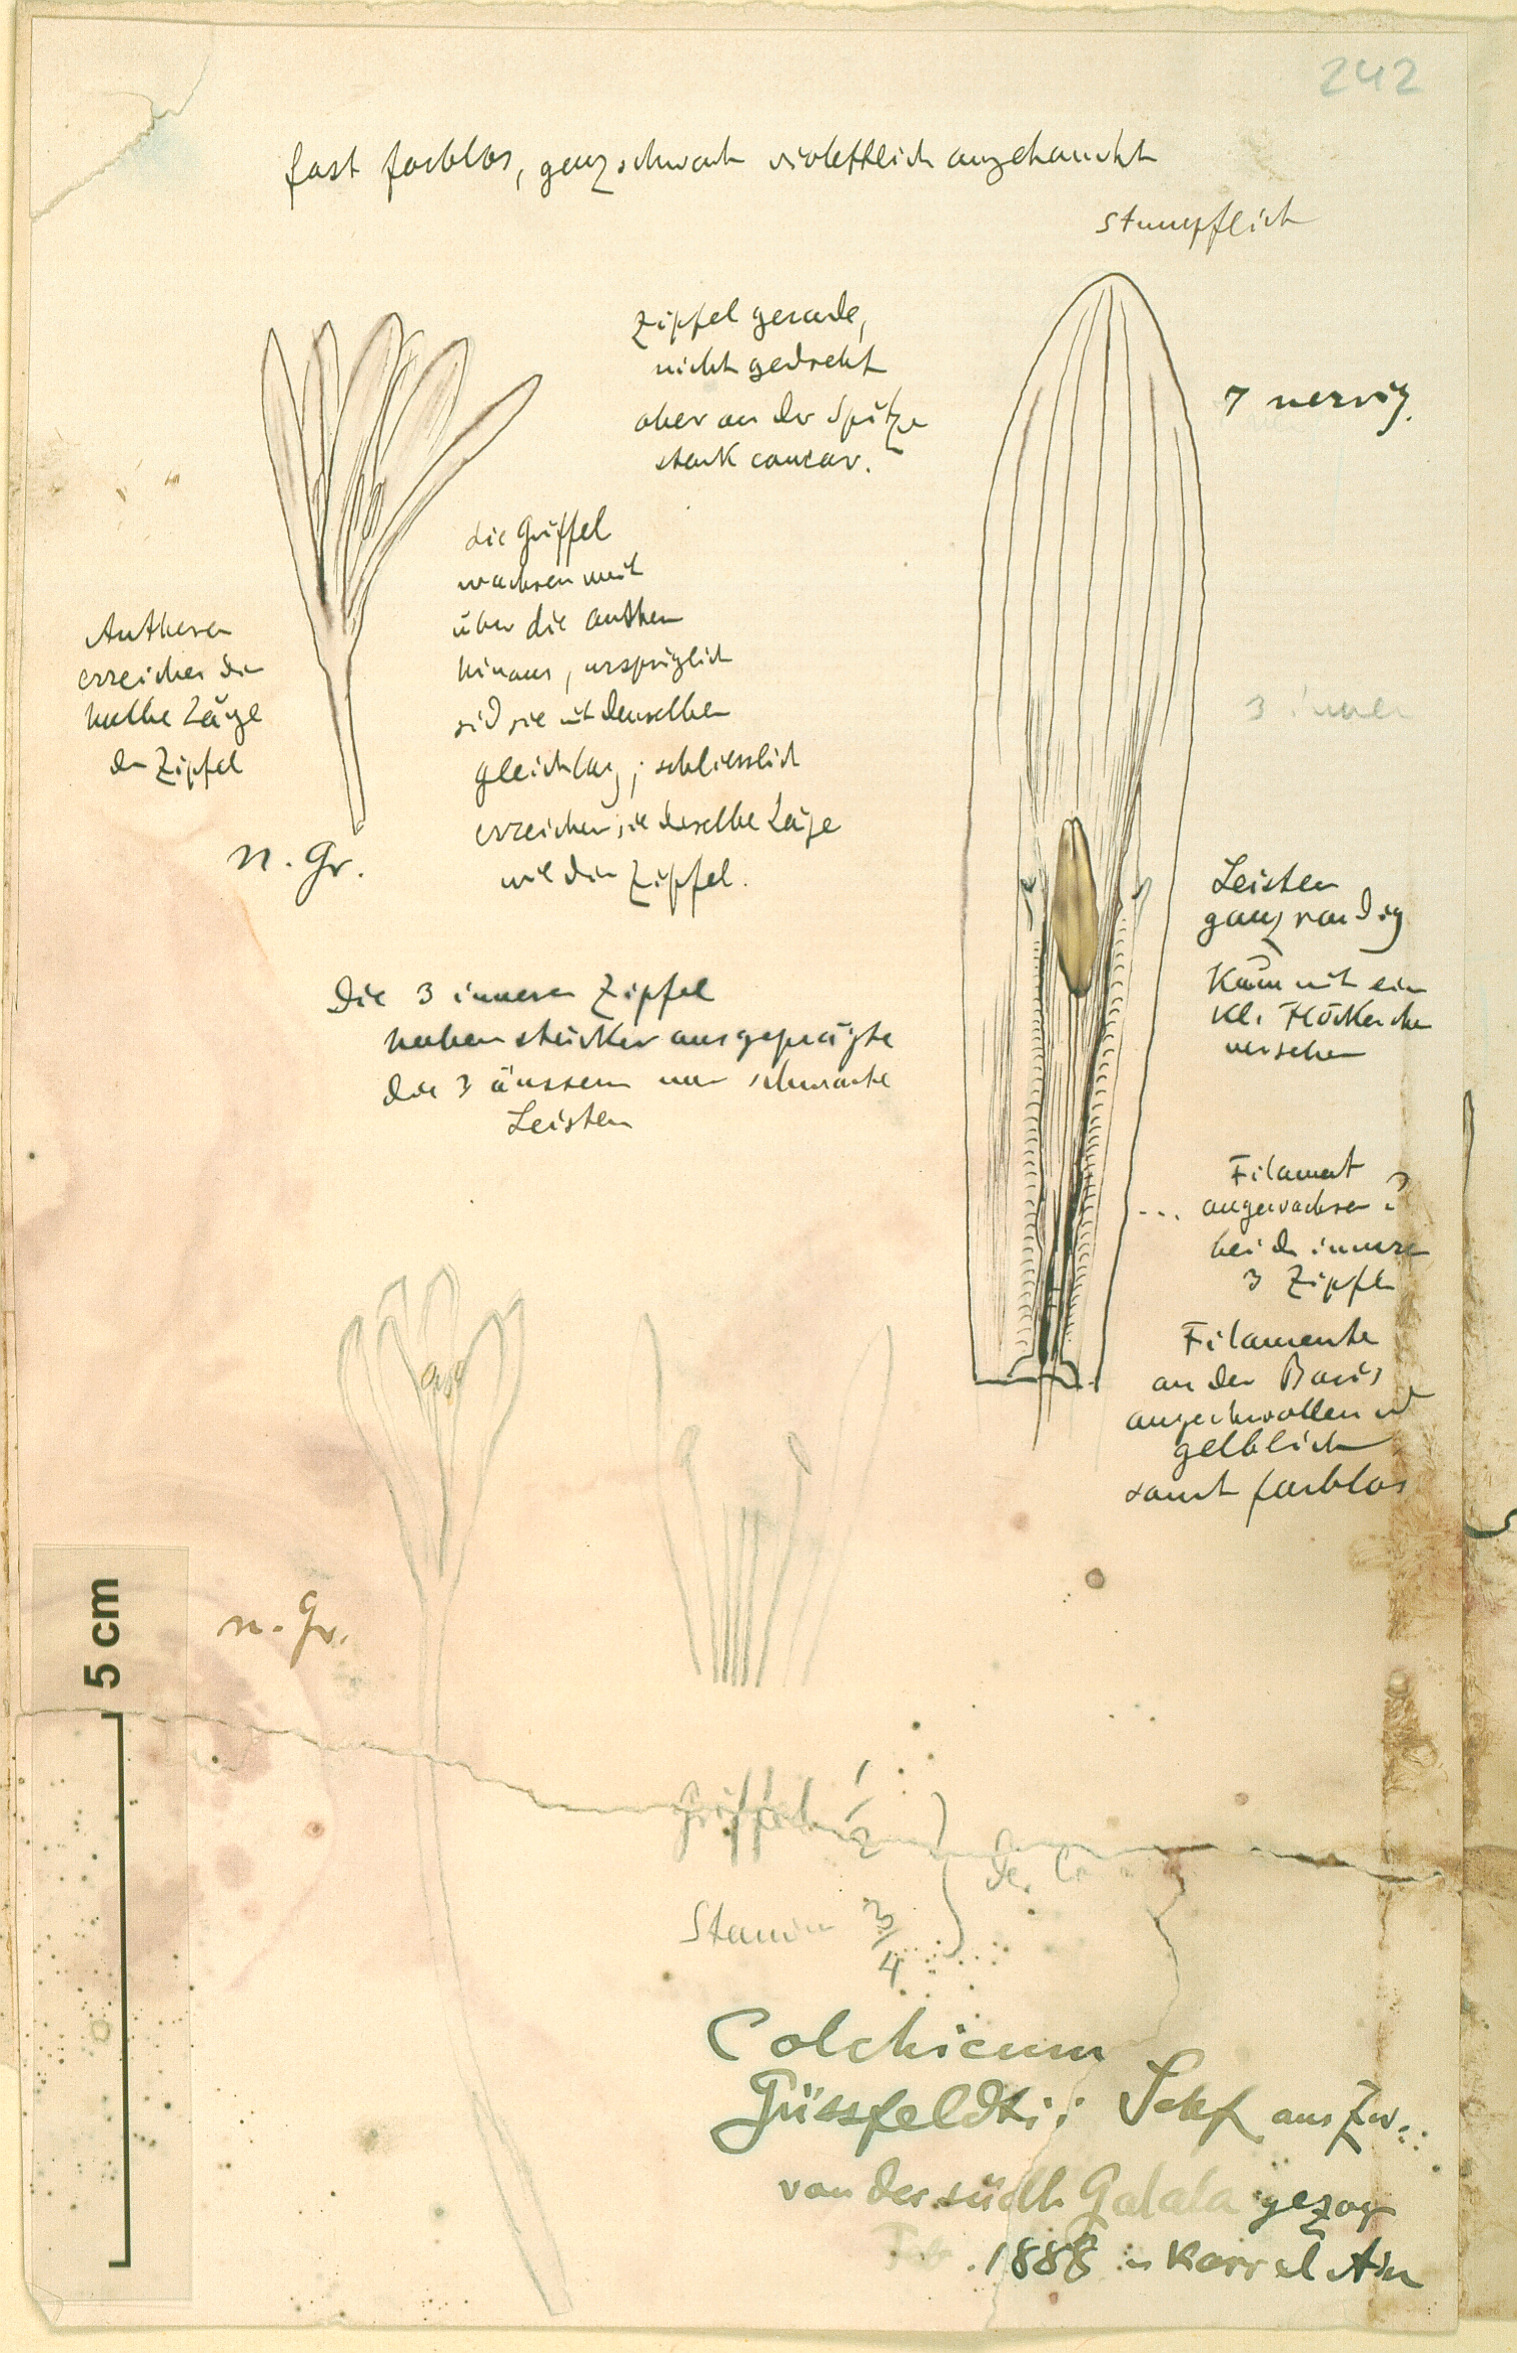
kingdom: Plantae
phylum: Tracheophyta
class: Liliopsida
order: Liliales
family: Colchicaceae
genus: Colchicum
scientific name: Colchicum schimperi
